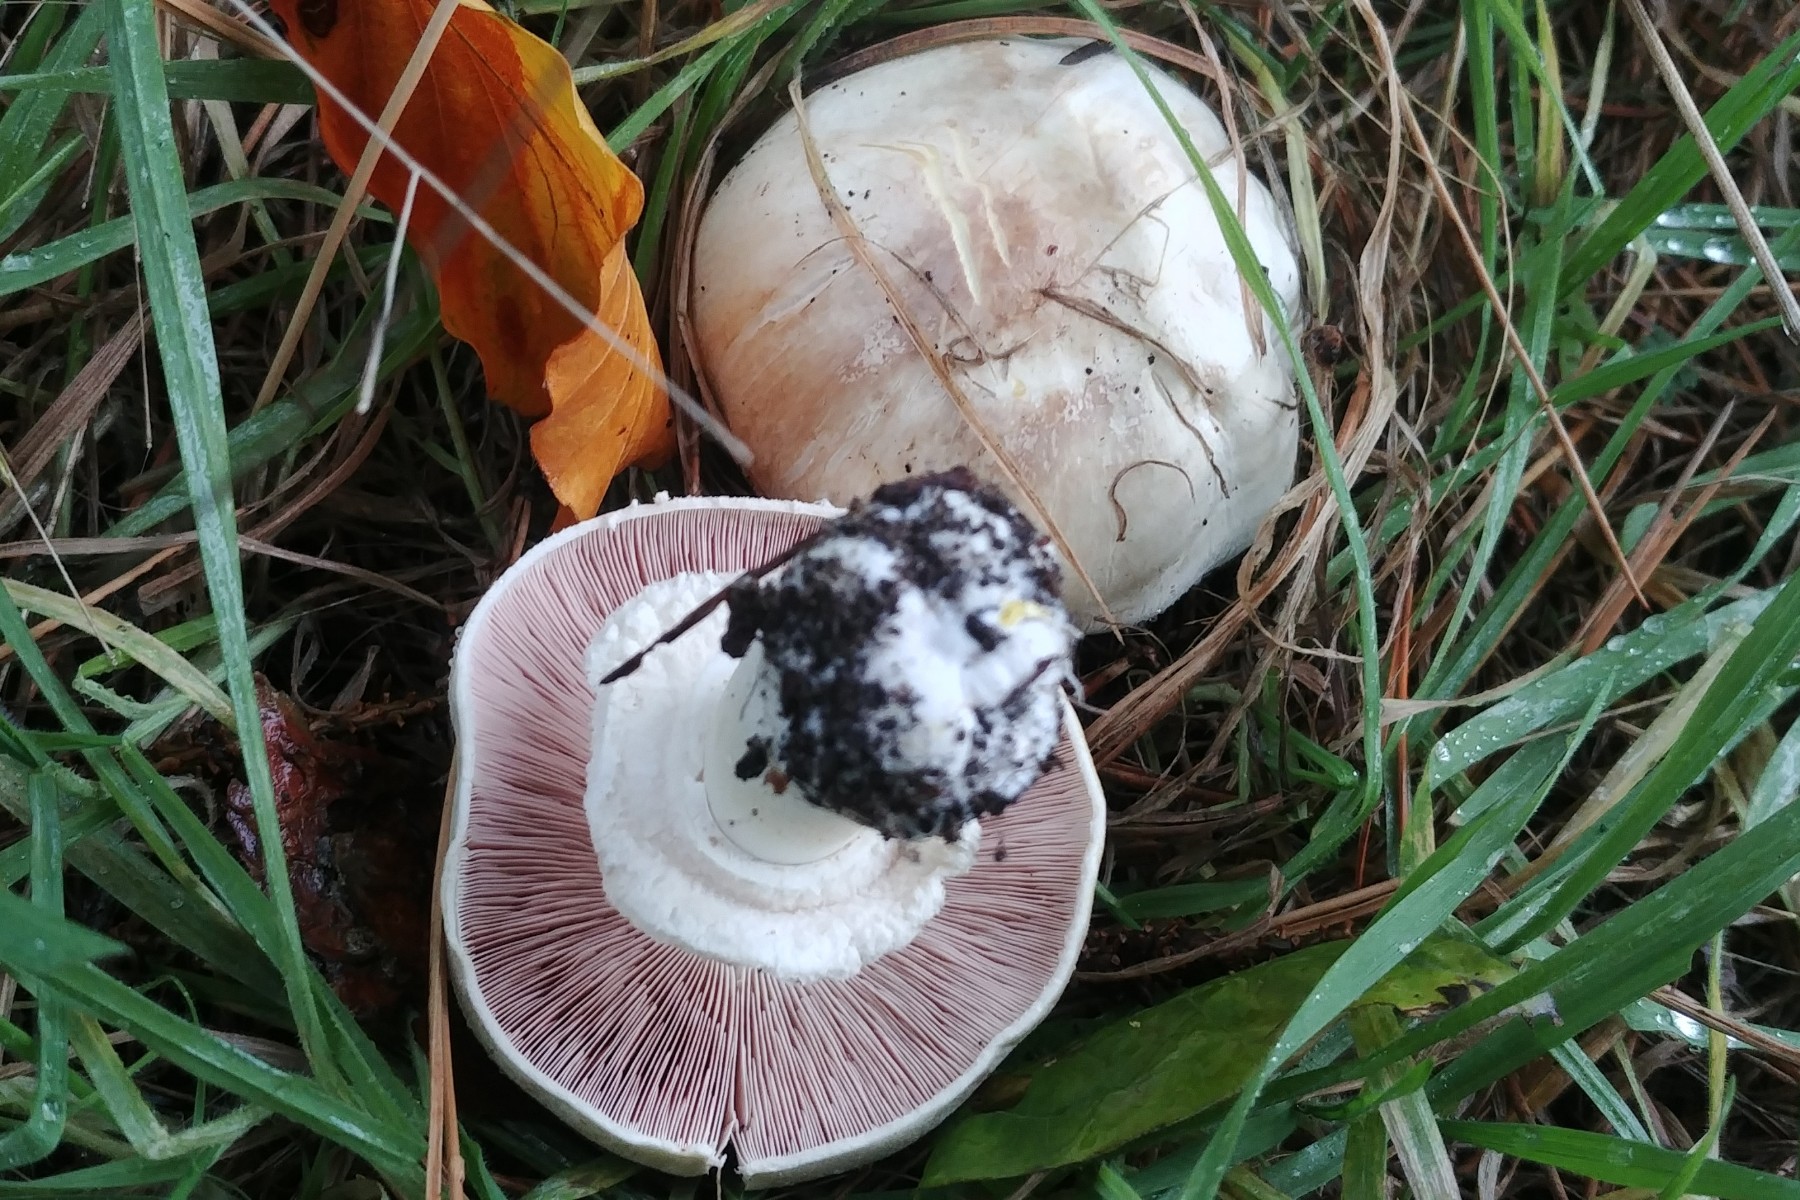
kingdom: Fungi
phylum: Basidiomycota
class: Agaricomycetes
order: Agaricales
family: Agaricaceae
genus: Agaricus
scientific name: Agaricus
